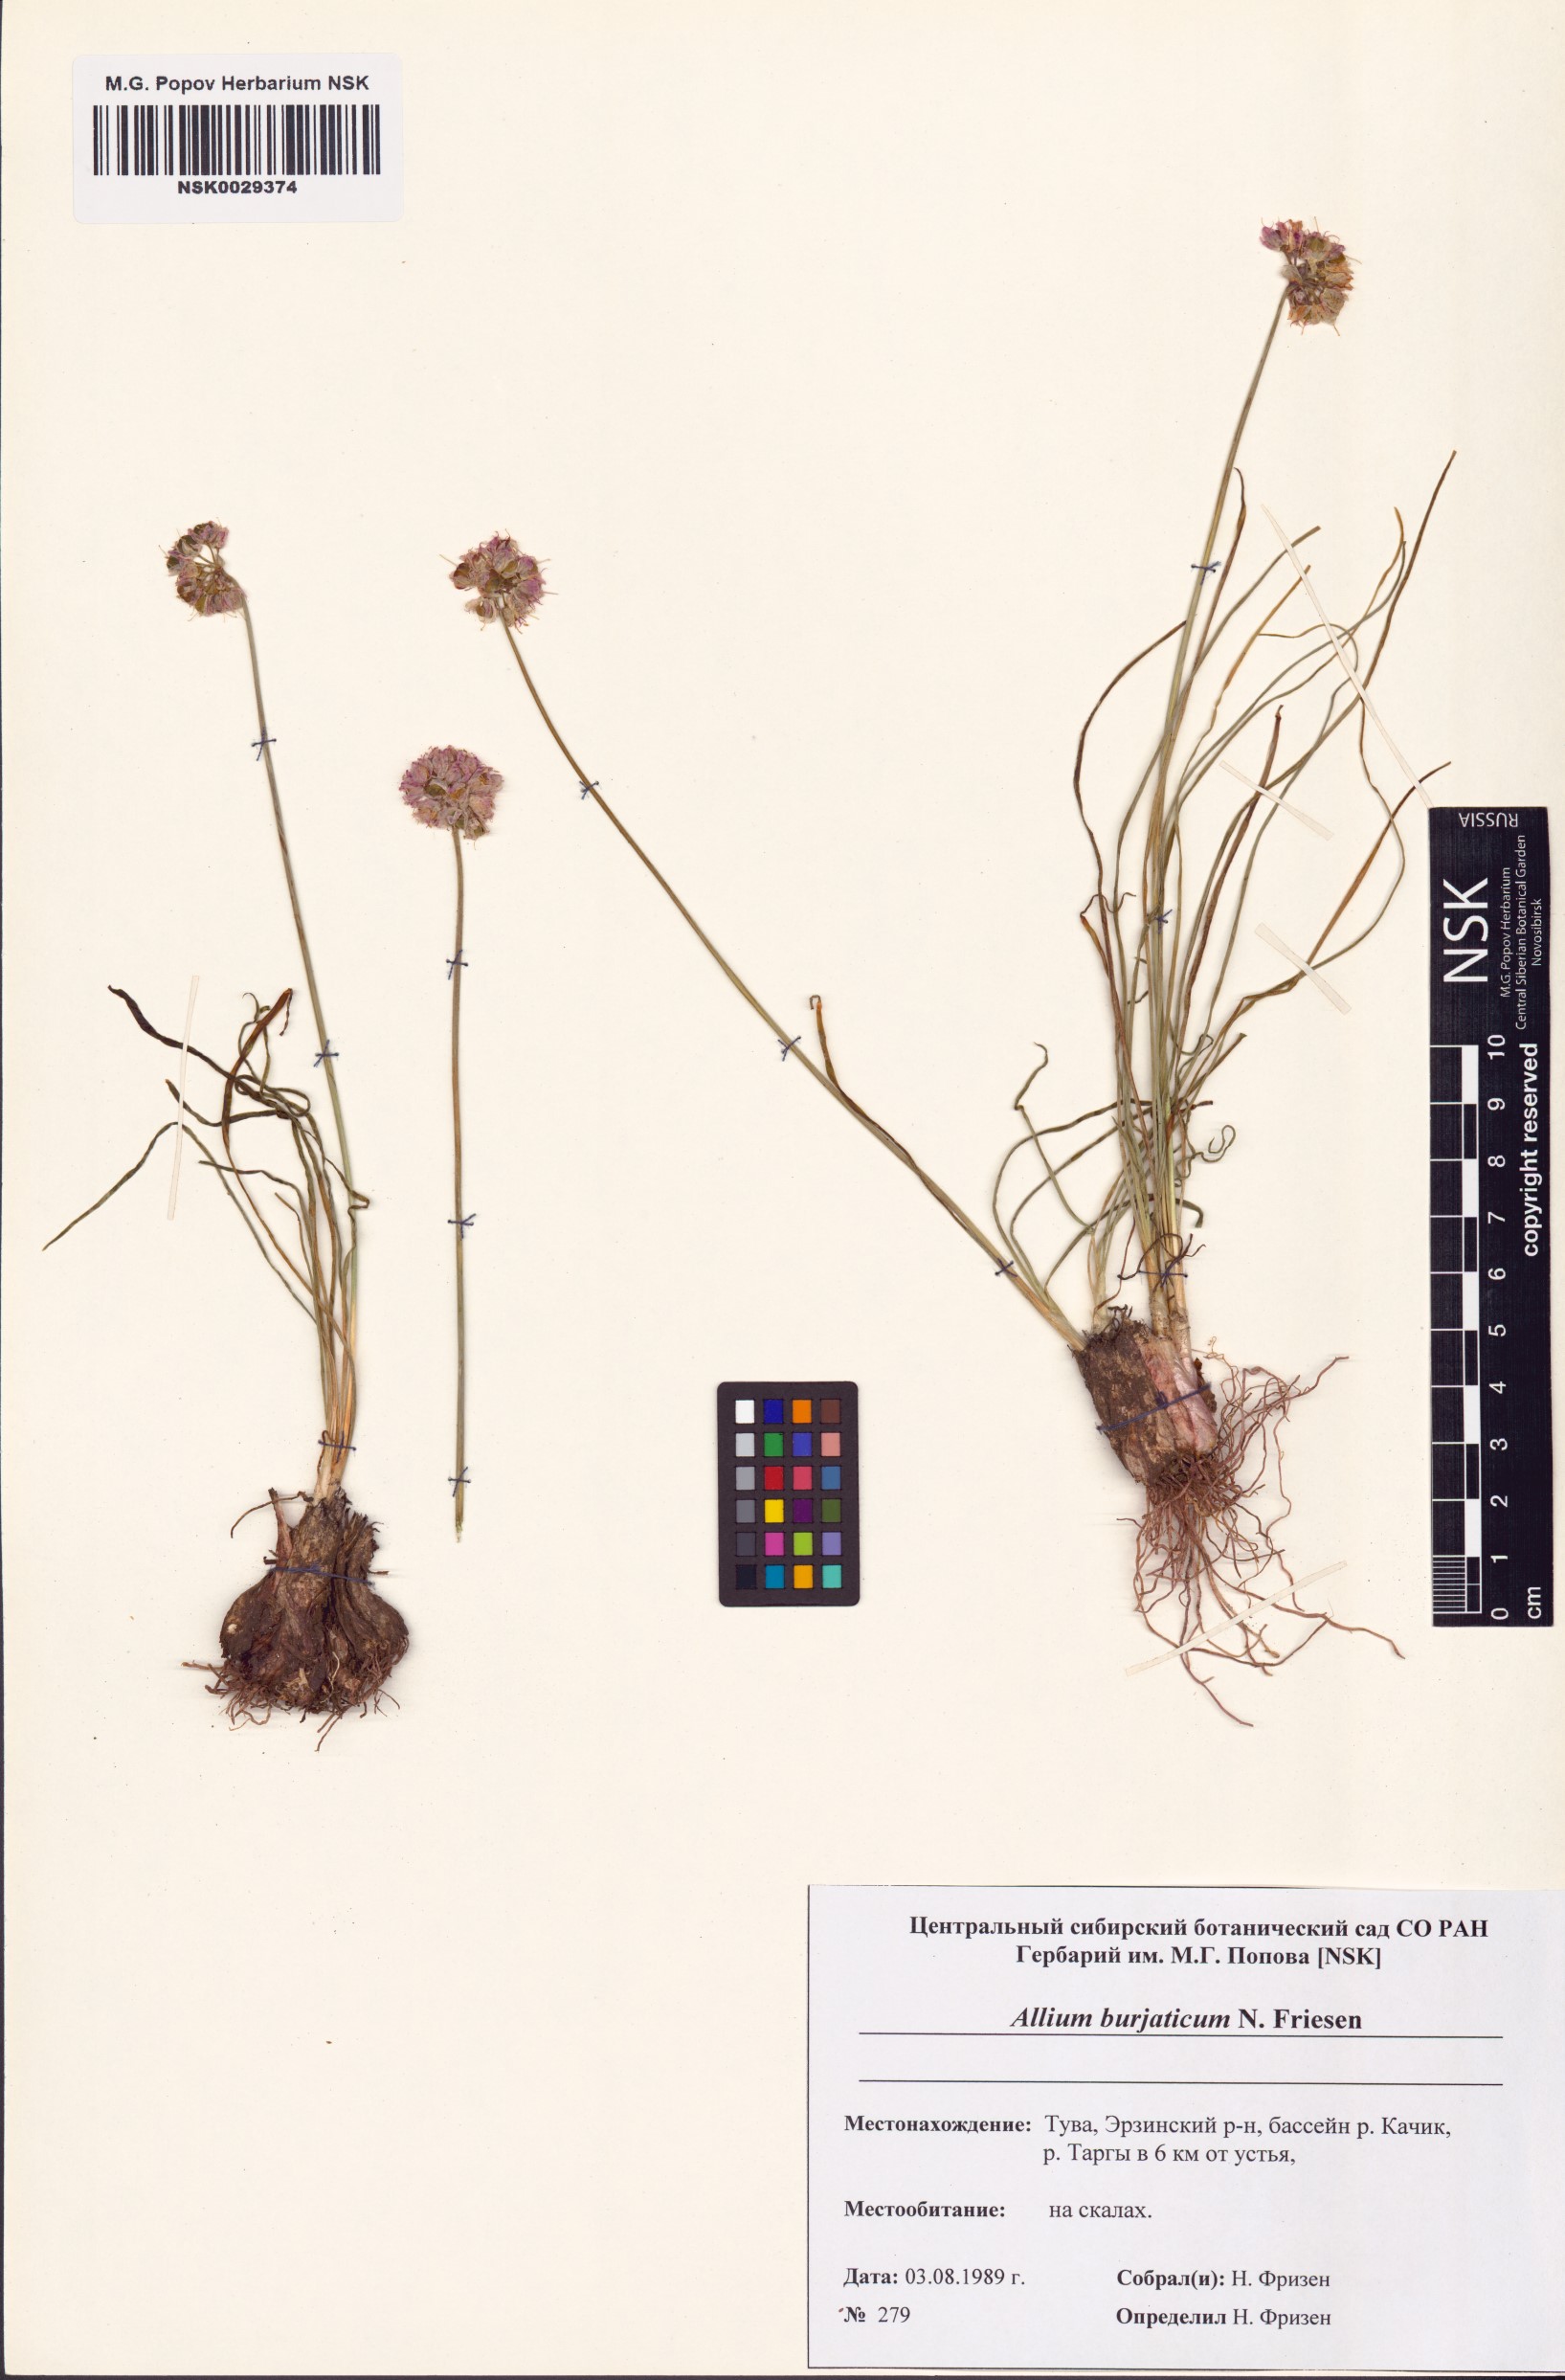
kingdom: Plantae
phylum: Tracheophyta
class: Liliopsida
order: Asparagales
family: Amaryllidaceae
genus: Allium
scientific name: Allium burjaticum
